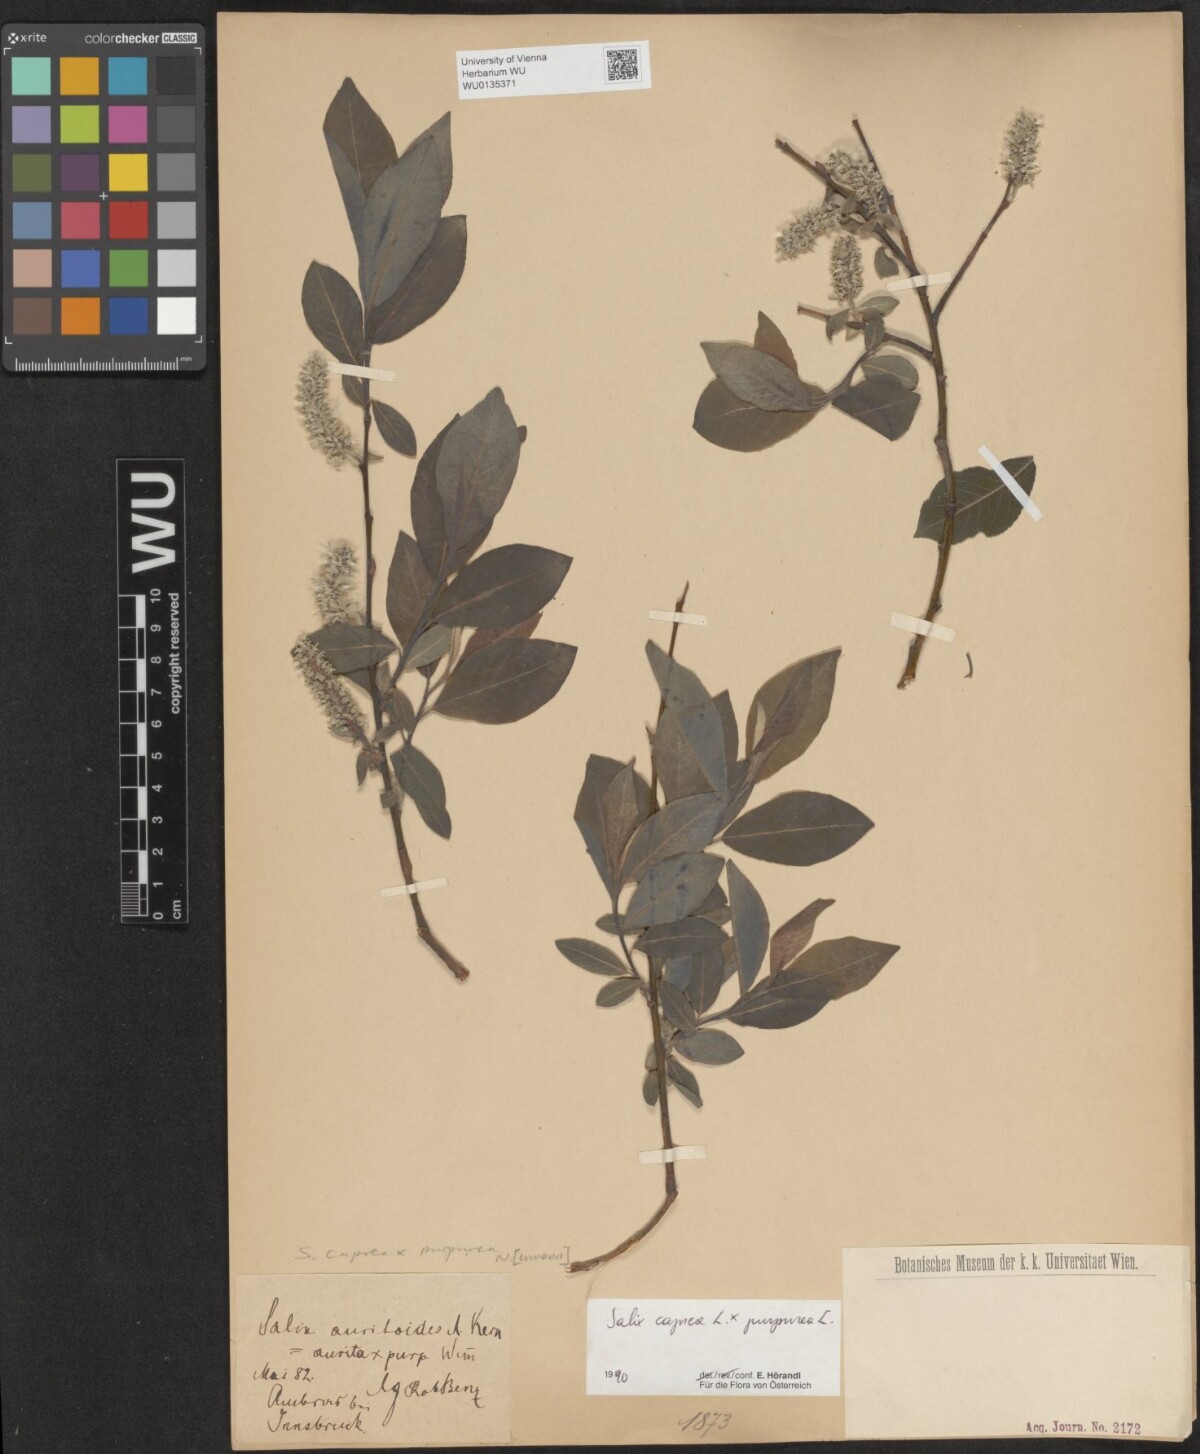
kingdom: Plantae
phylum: Tracheophyta
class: Magnoliopsida
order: Malpighiales
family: Salicaceae
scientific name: Salicaceae
